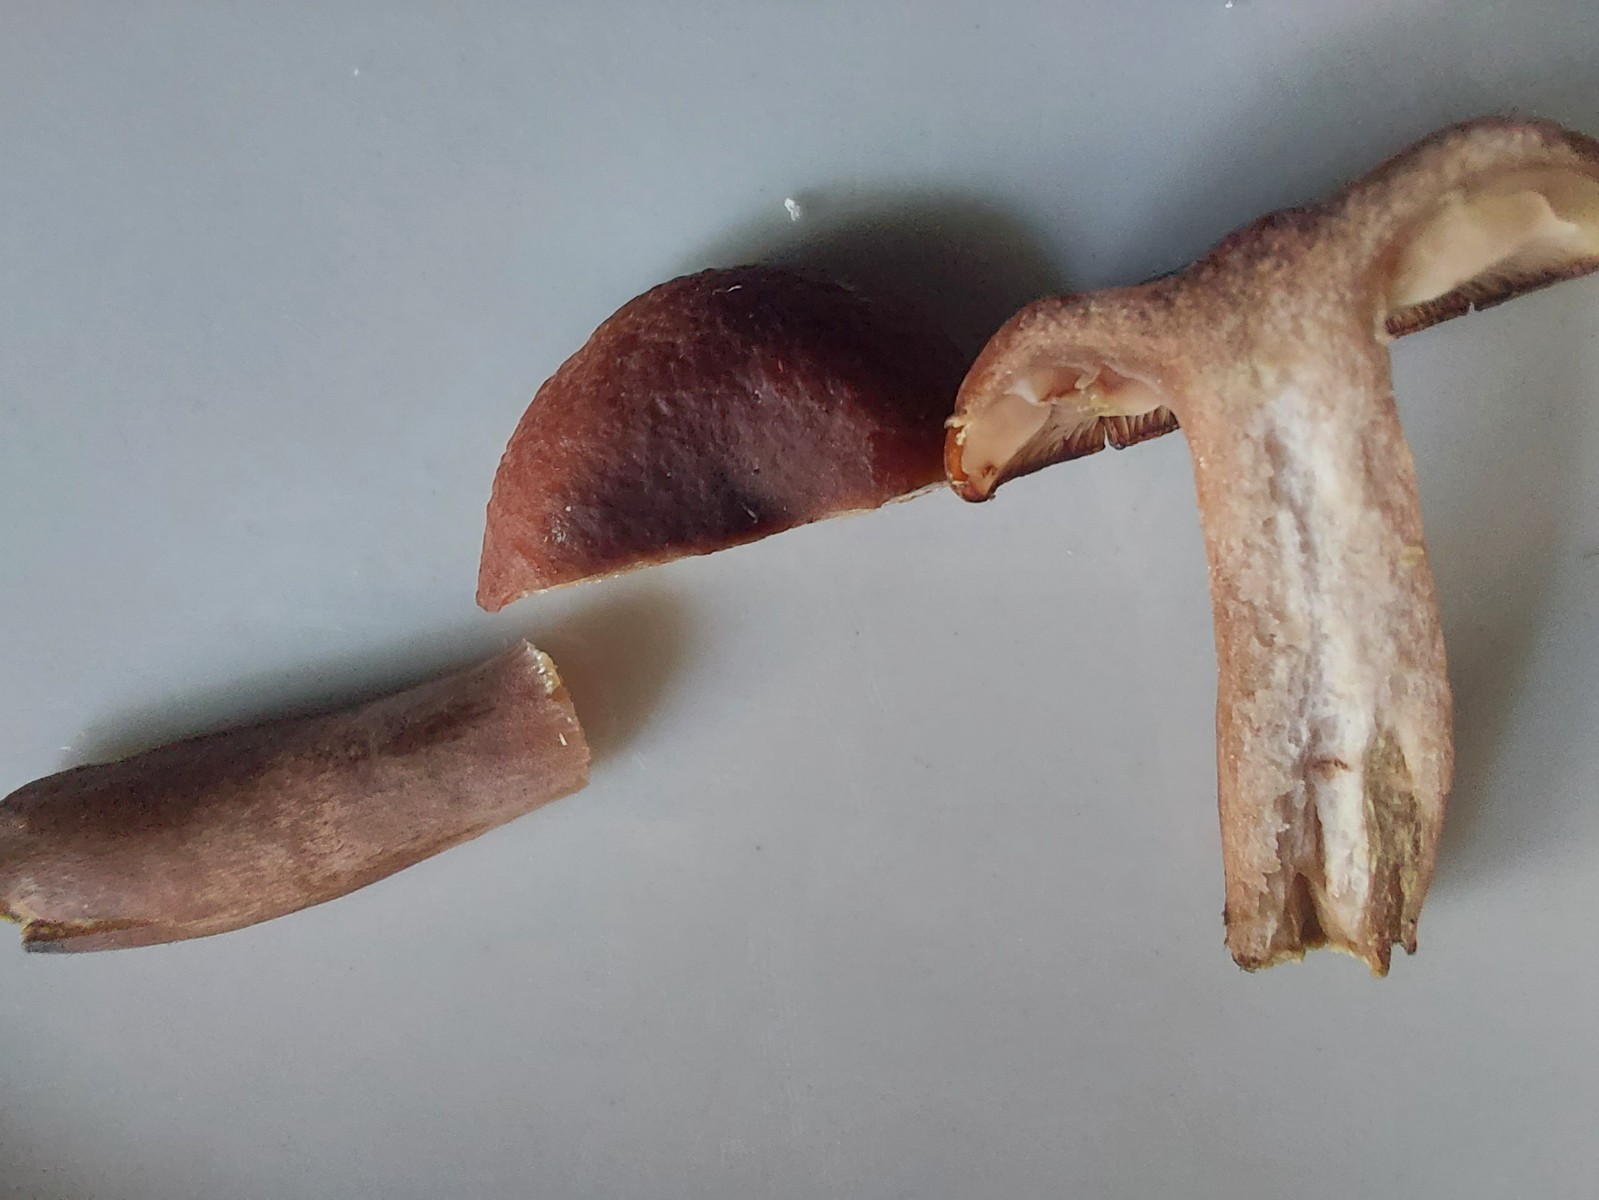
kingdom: Fungi
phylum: Basidiomycota
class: Agaricomycetes
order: Russulales
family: Russulaceae
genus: Lactarius
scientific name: Lactarius camphoratus
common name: kamfer-mælkehat
